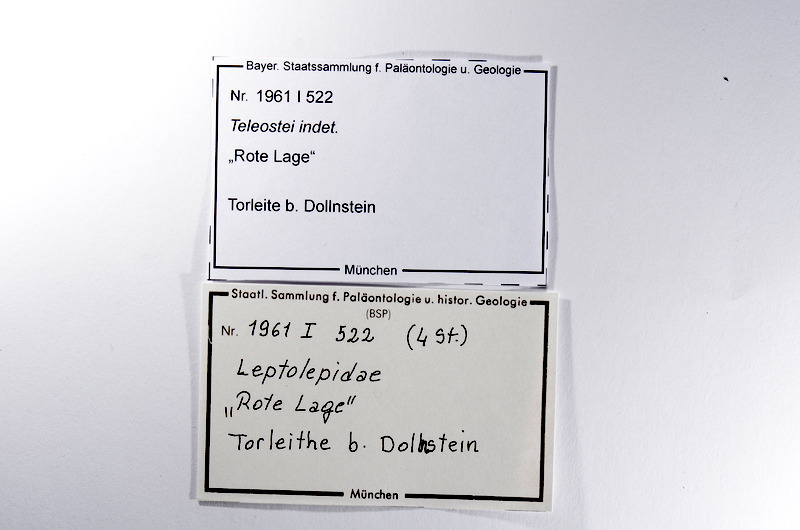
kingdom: Animalia
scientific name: Animalia
